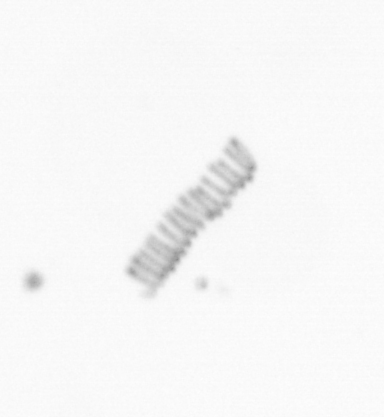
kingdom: Chromista
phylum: Ochrophyta
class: Bacillariophyceae
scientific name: Bacillariophyceae
